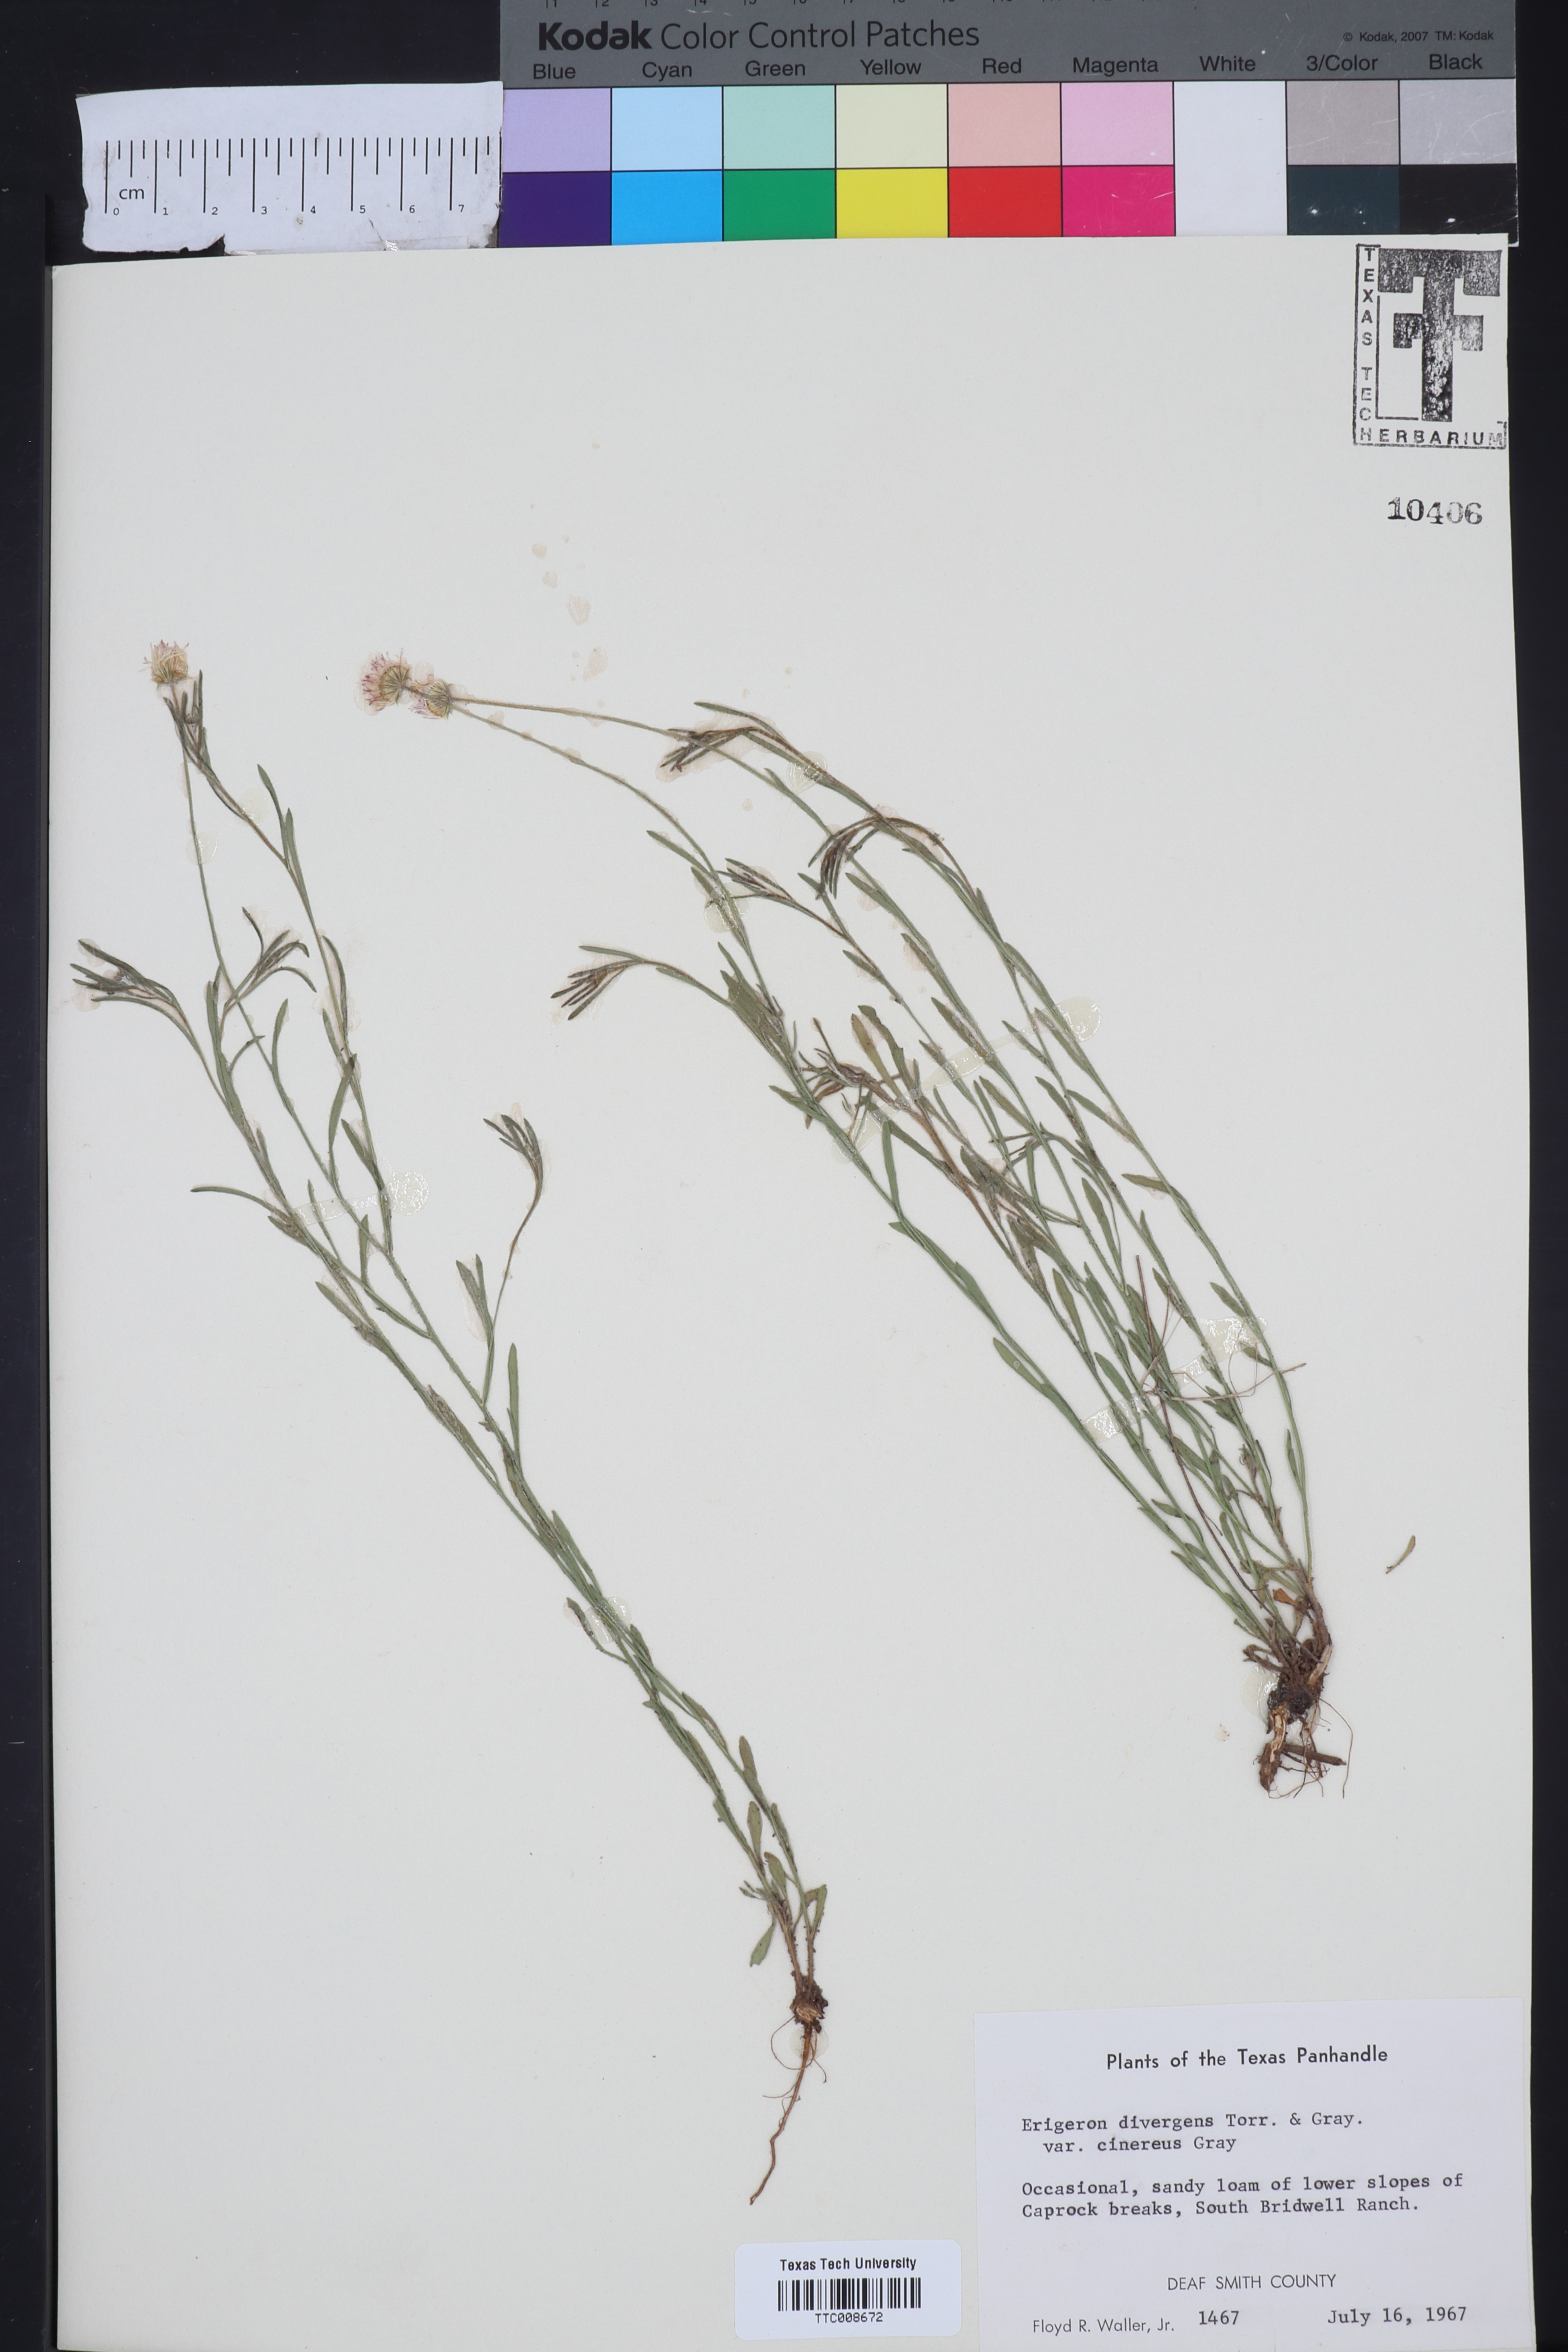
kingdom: Plantae
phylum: Tracheophyta
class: Magnoliopsida
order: Asterales
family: Asteraceae
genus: Erigeron
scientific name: Erigeron tracyi
